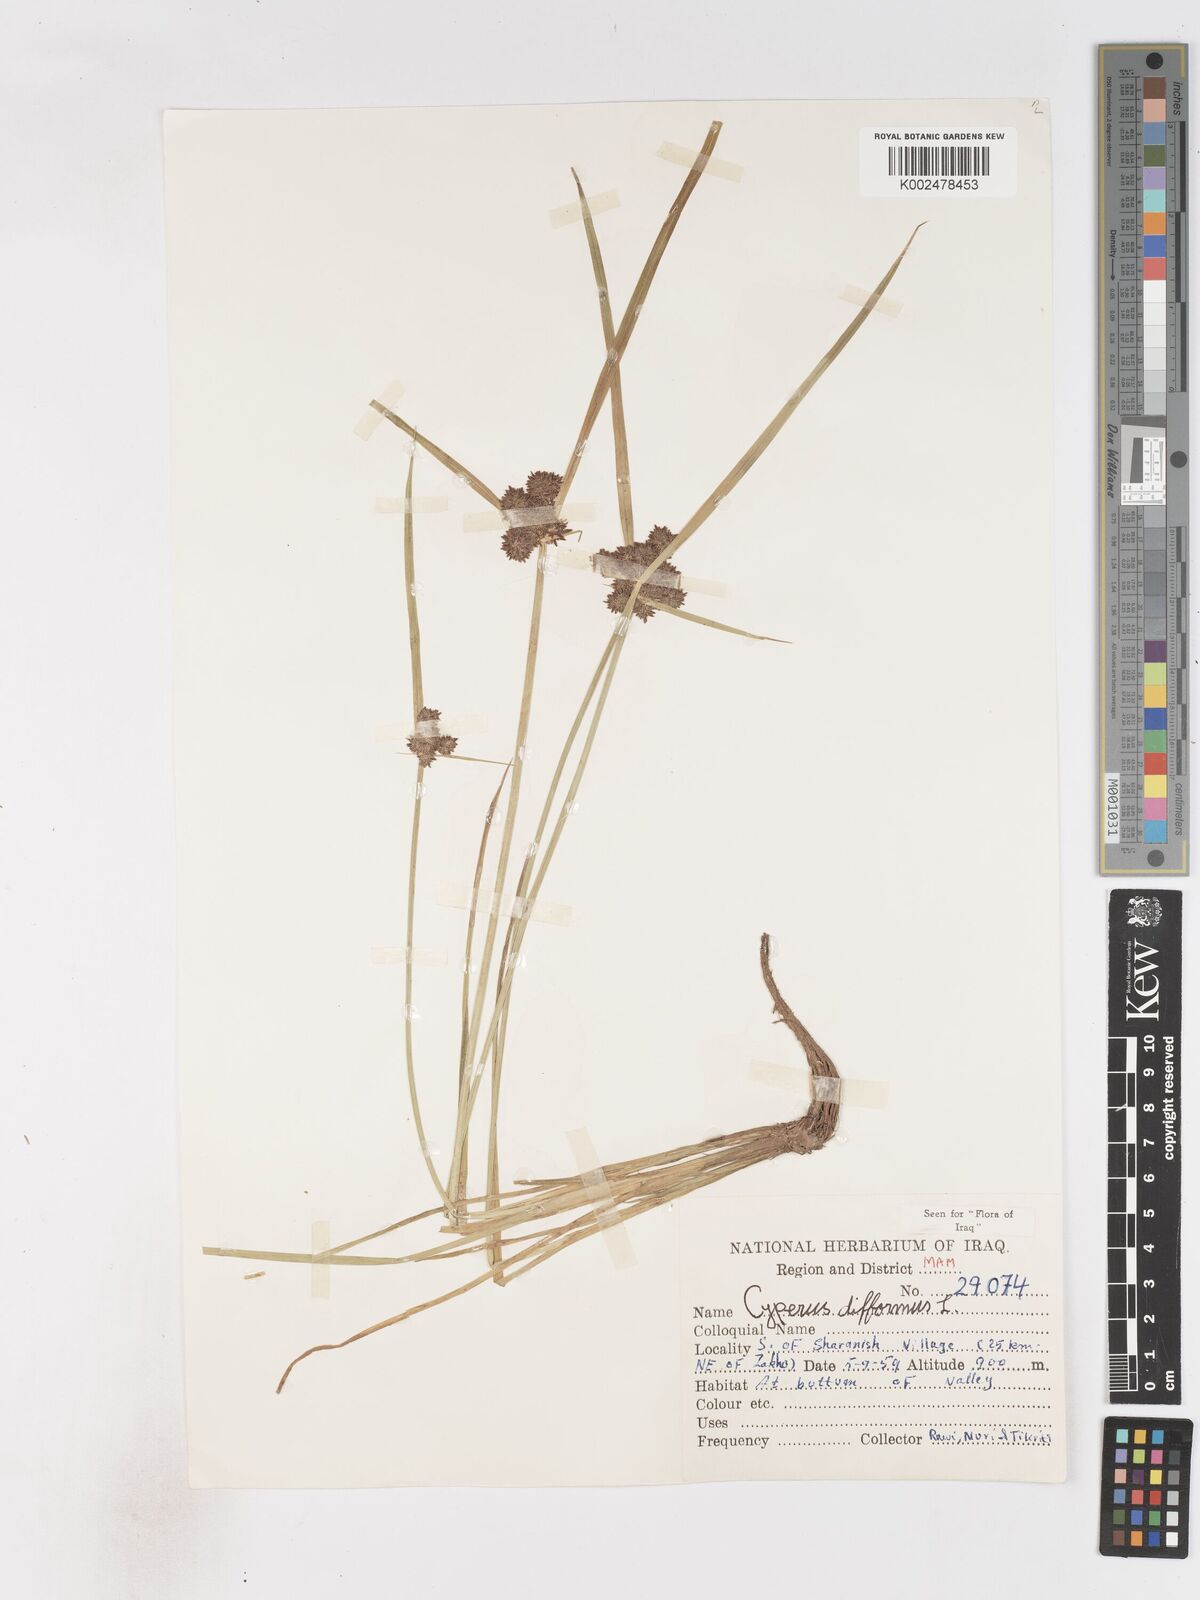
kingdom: Plantae
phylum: Tracheophyta
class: Liliopsida
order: Poales
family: Cyperaceae
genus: Cyperus
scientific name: Cyperus difformis
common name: Variable flatsedge
